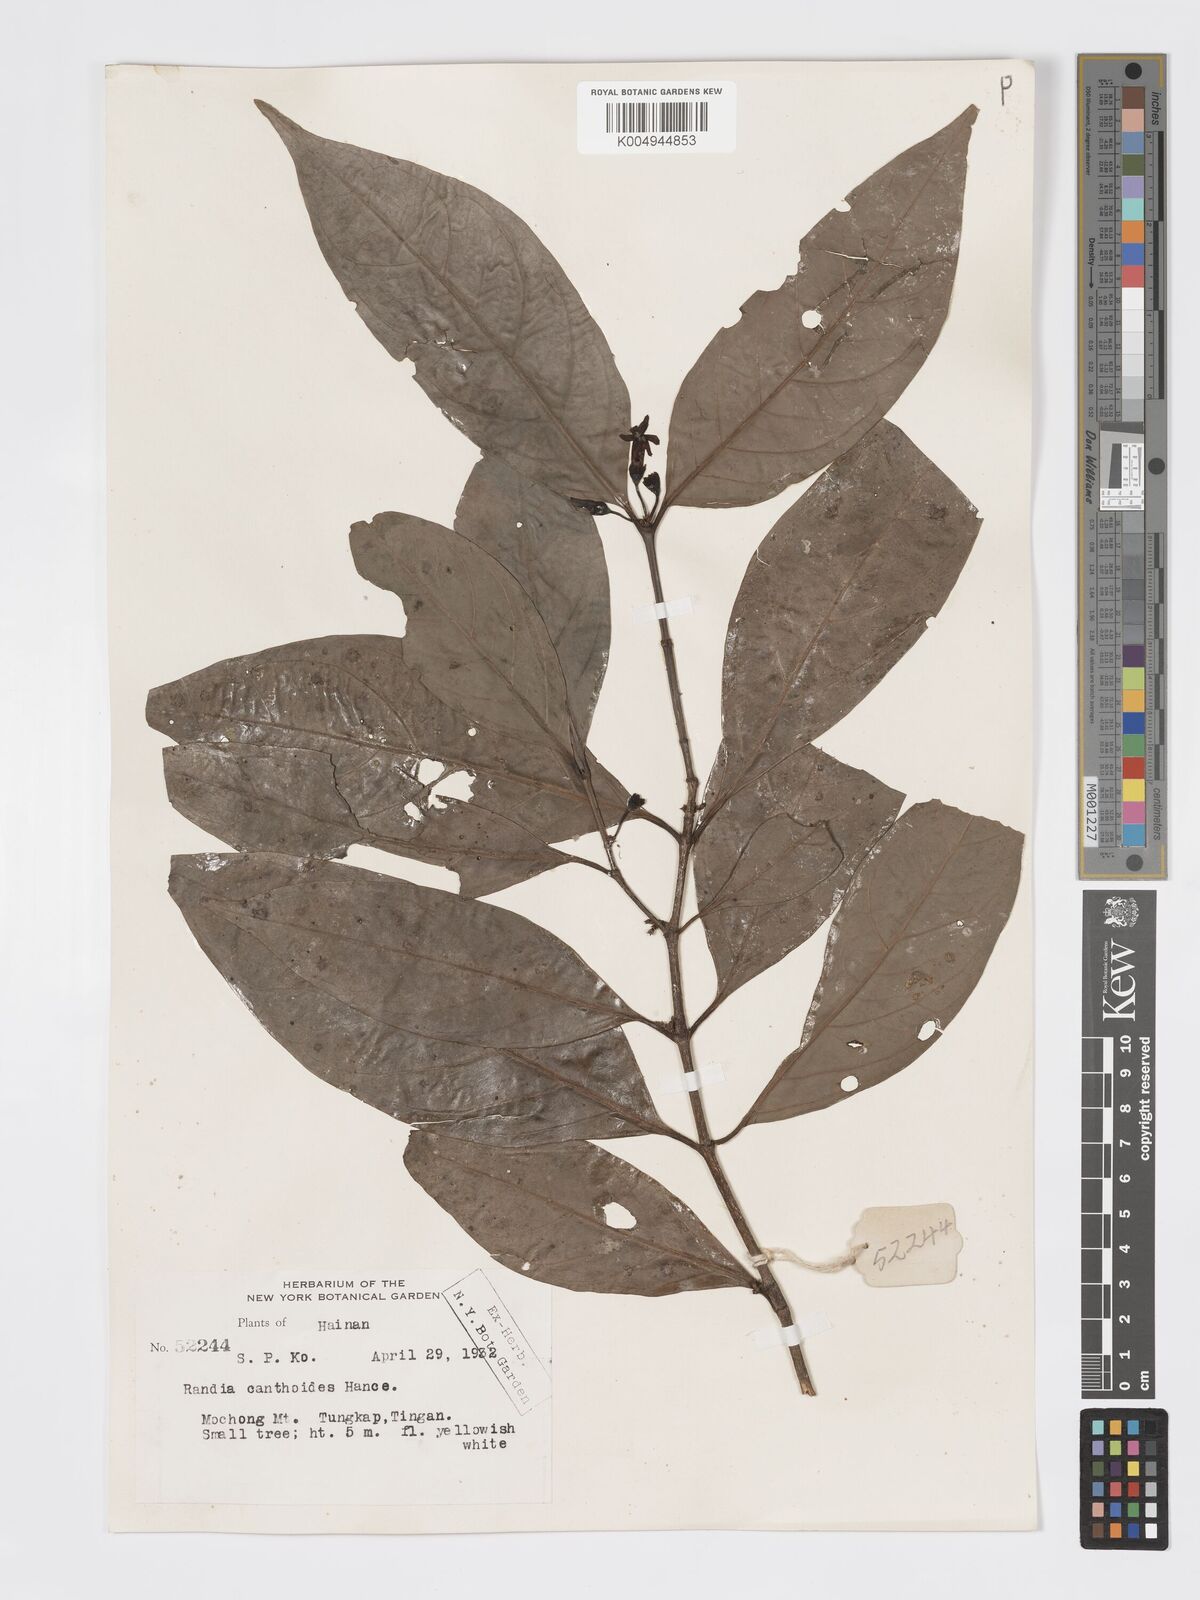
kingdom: Plantae
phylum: Tracheophyta
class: Magnoliopsida
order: Gentianales
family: Rubiaceae
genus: Aidia
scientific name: Aidia canthioides
